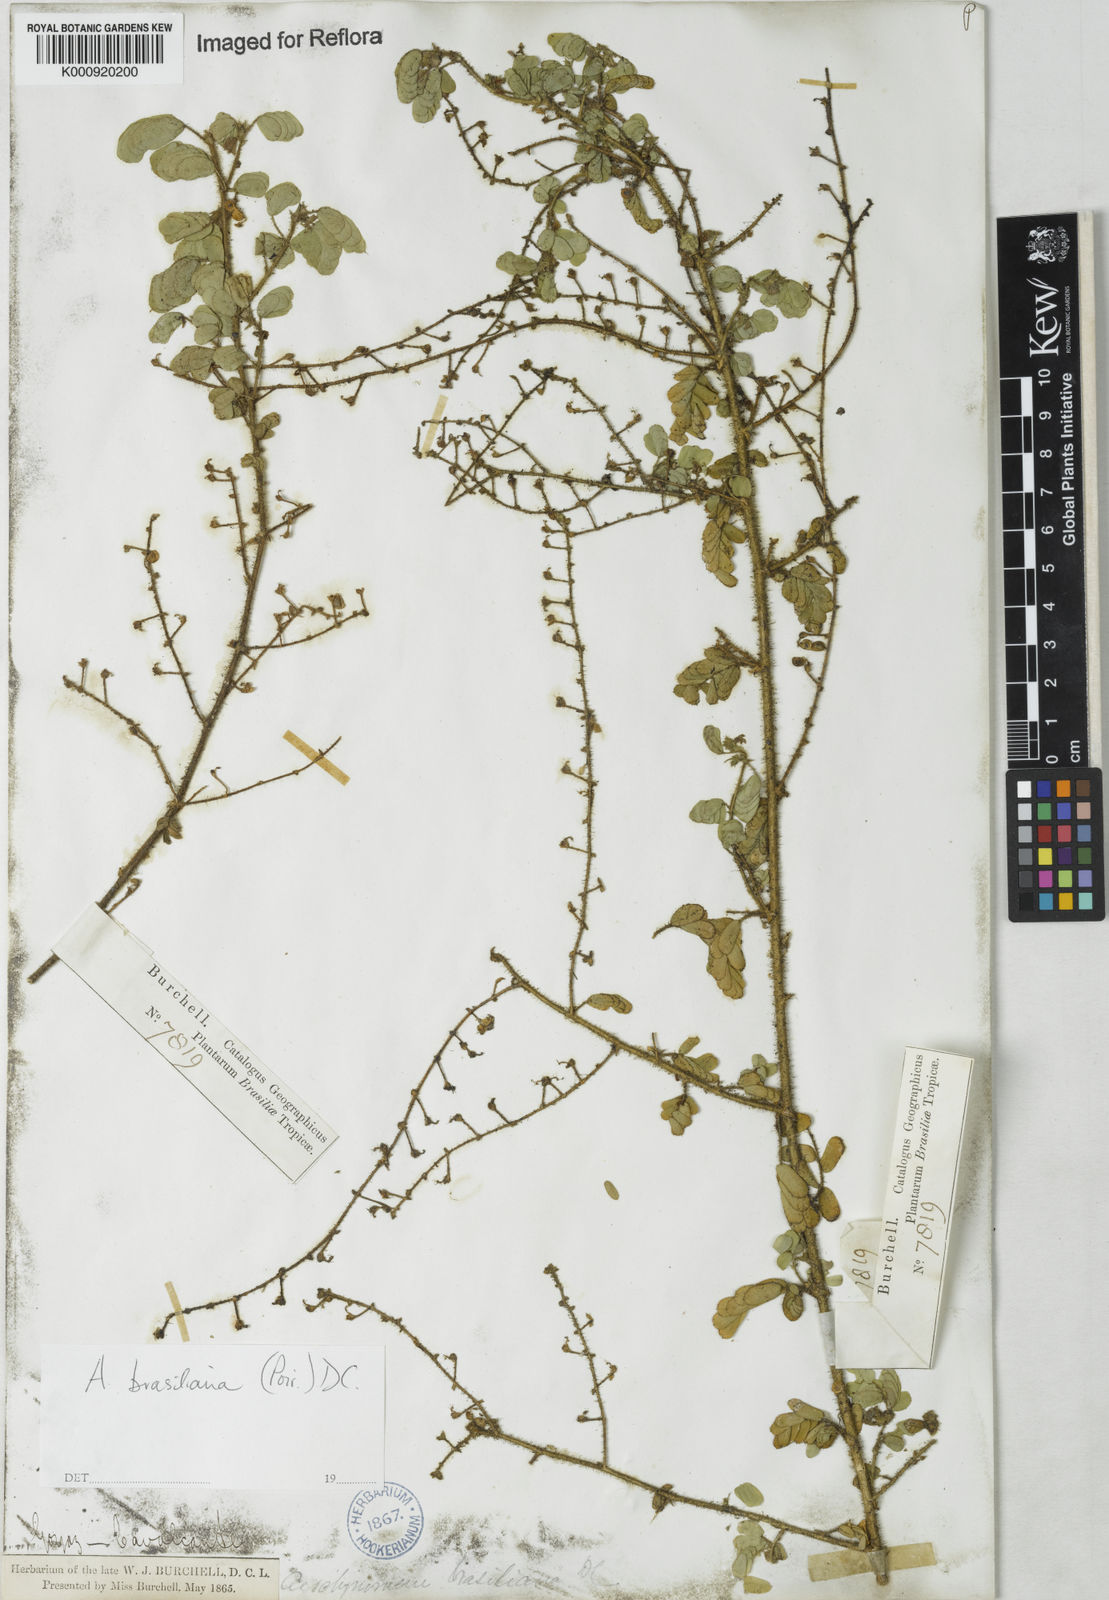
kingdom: Plantae
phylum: Tracheophyta
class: Magnoliopsida
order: Fabales
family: Fabaceae
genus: Ctenodon
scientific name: Ctenodon brasilianus
